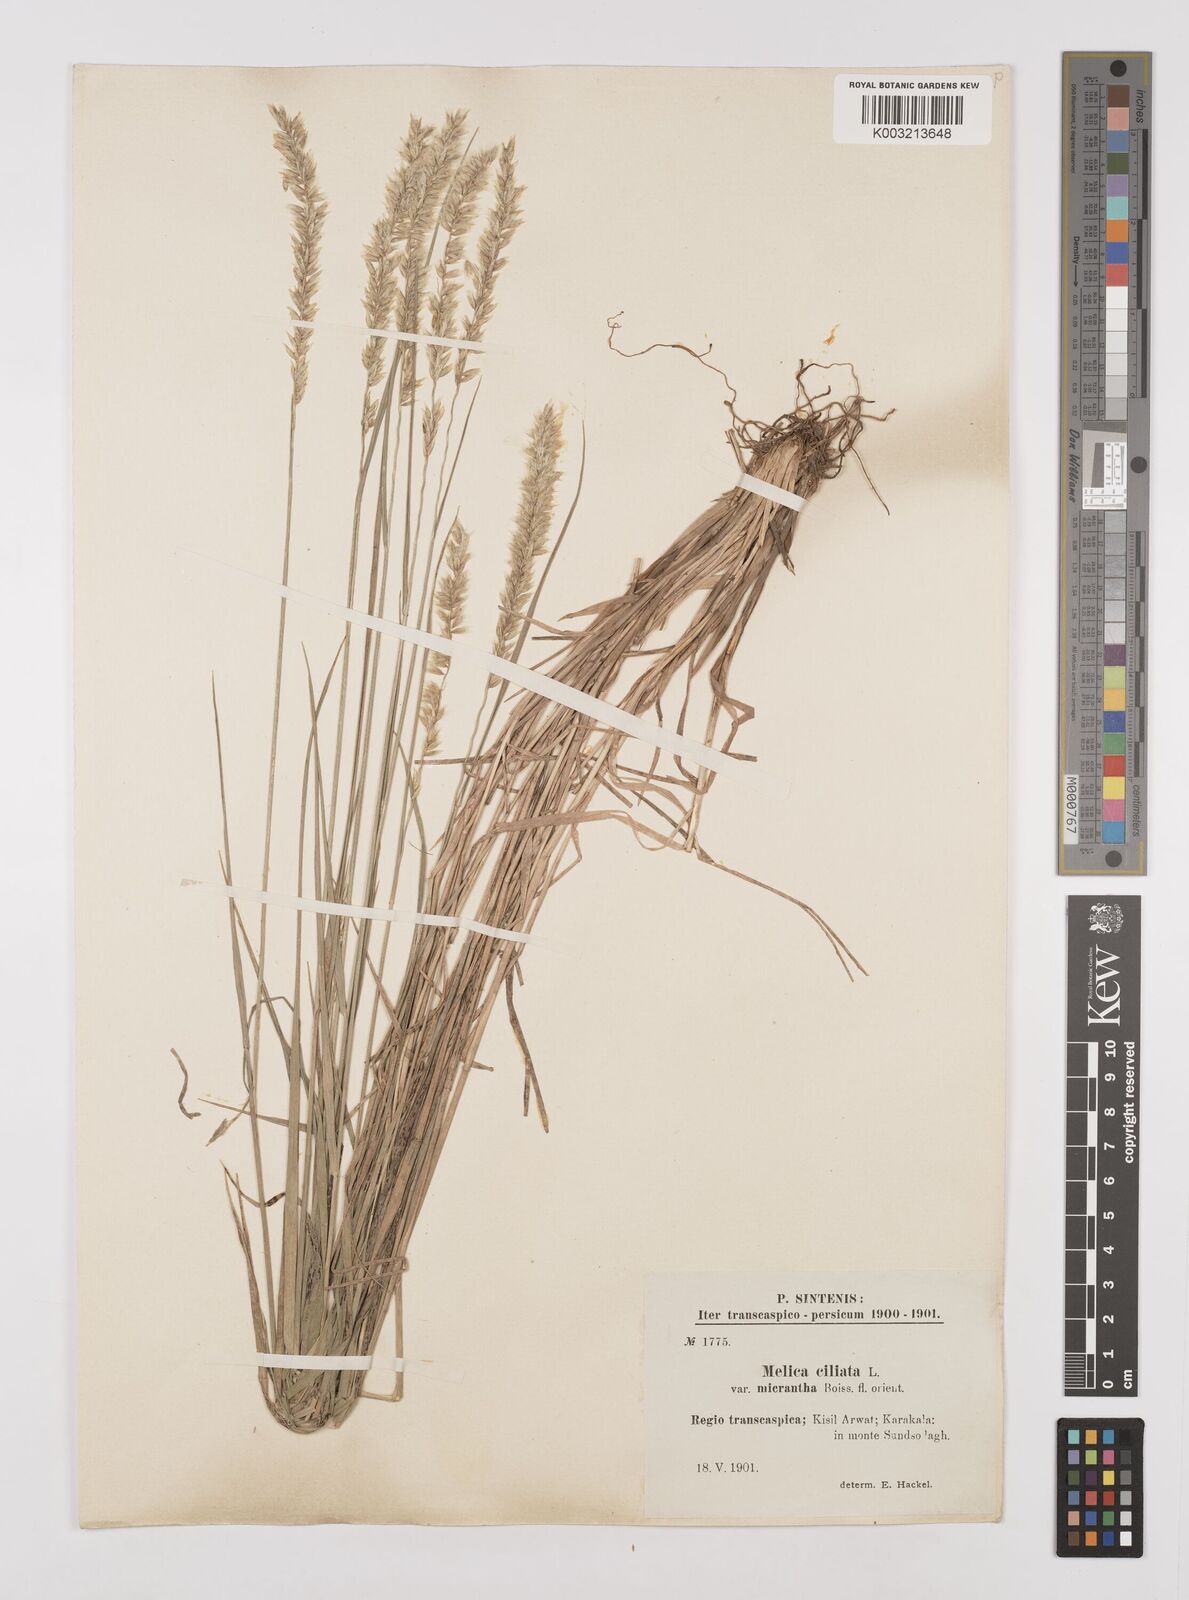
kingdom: Plantae
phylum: Tracheophyta
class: Liliopsida
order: Poales
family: Poaceae
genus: Melica
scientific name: Melica ciliata
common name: Hairy melicgrass
